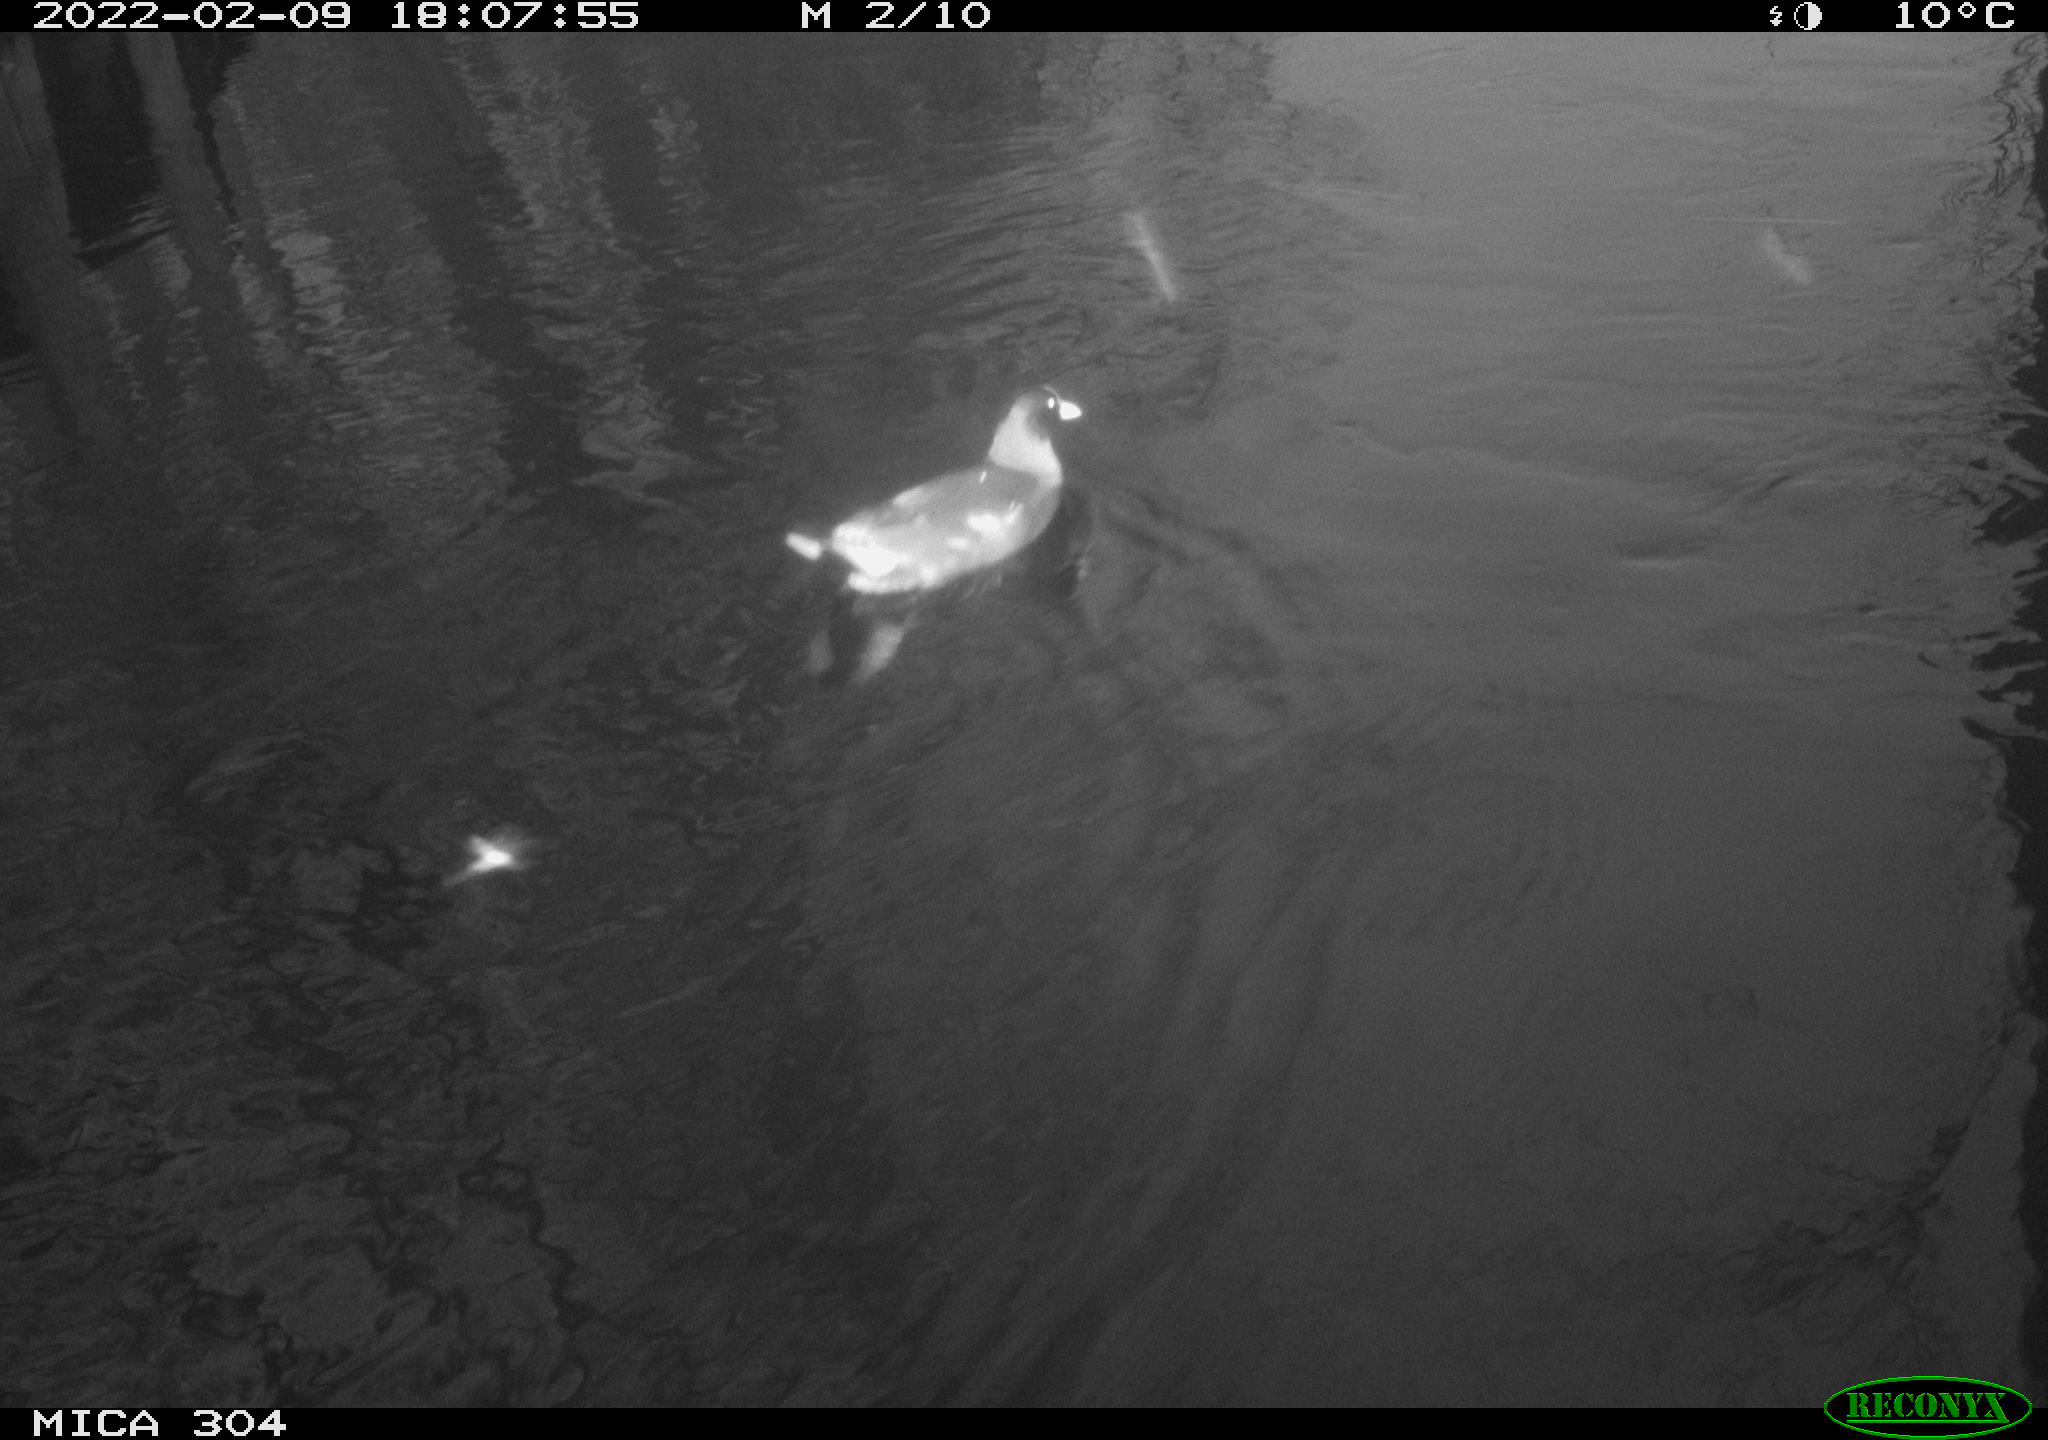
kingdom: Animalia
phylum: Chordata
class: Aves
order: Gruiformes
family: Rallidae
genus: Gallinula
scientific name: Gallinula chloropus
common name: Common moorhen
